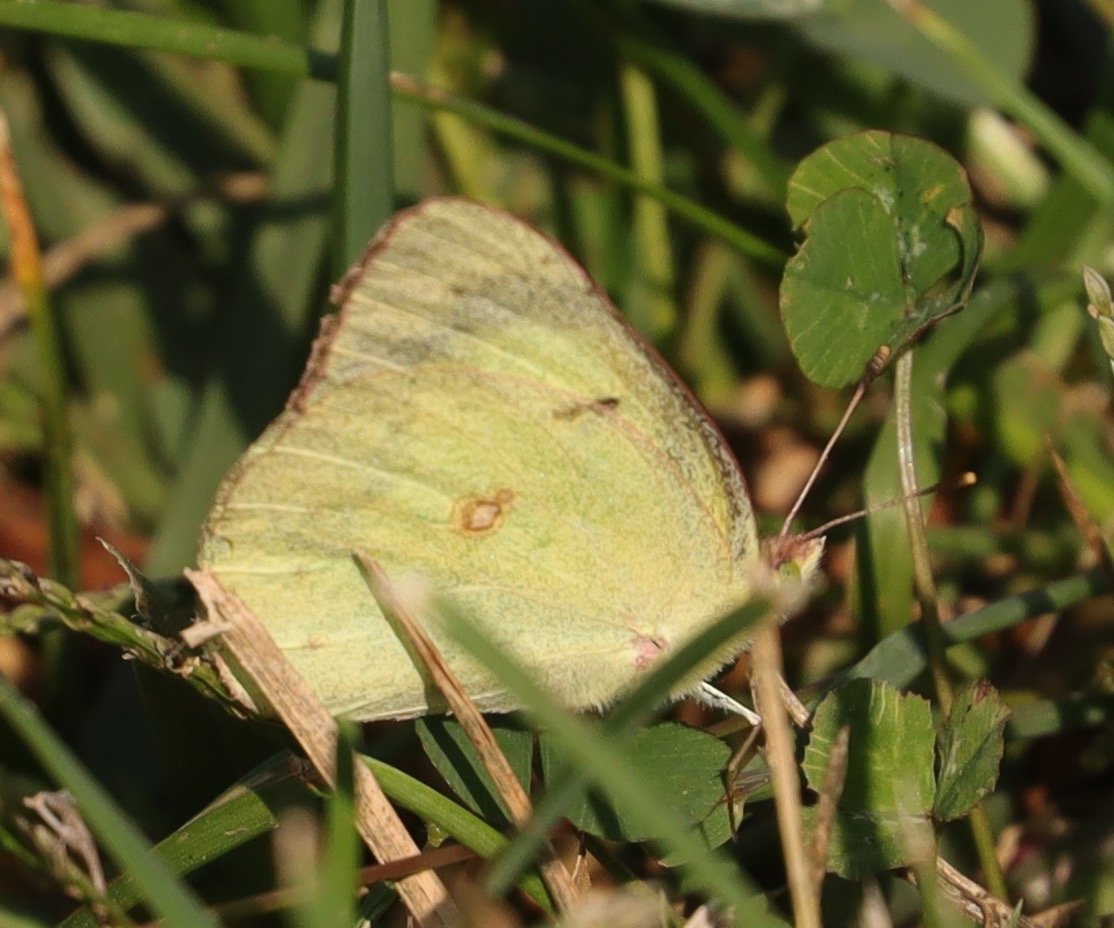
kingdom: Animalia
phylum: Arthropoda
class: Insecta
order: Lepidoptera
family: Pieridae
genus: Colias
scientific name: Colias philodice
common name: Clouded Sulphur
